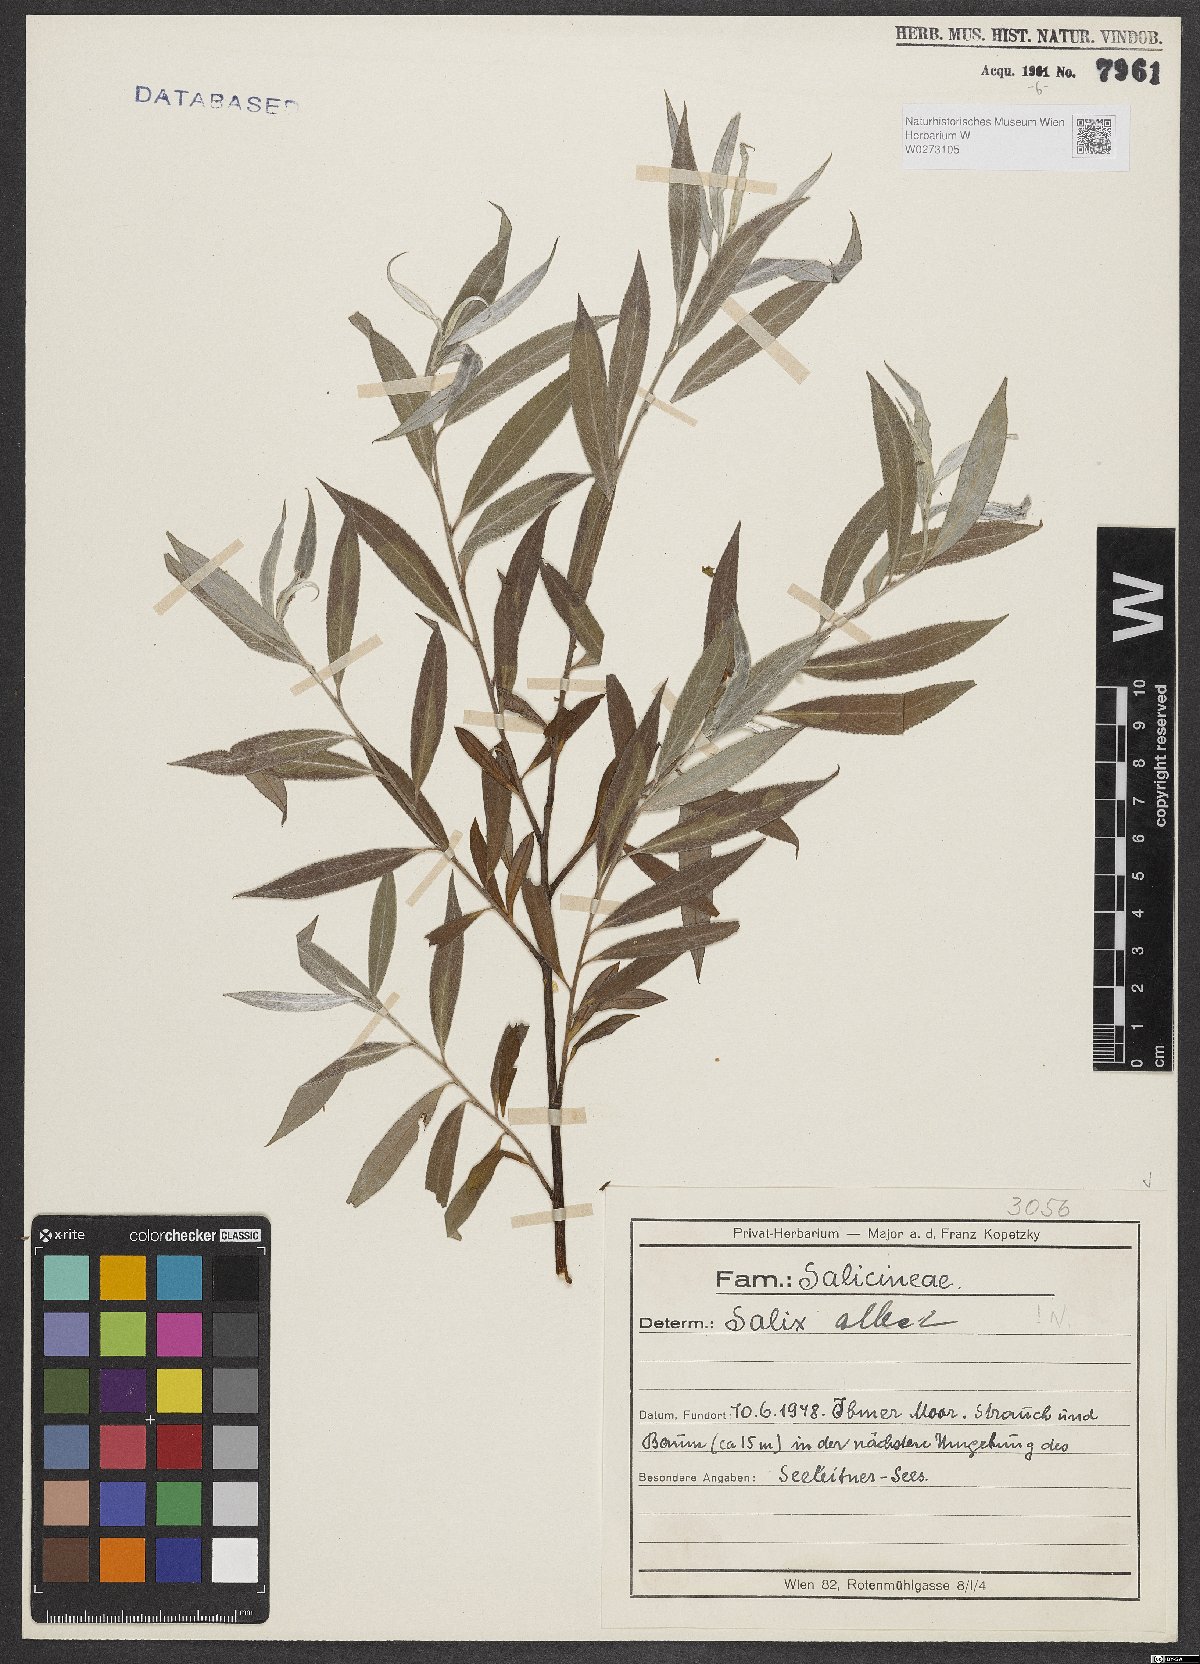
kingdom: Plantae
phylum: Tracheophyta
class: Magnoliopsida
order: Malpighiales
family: Salicaceae
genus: Salix
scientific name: Salix alba
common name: White willow
